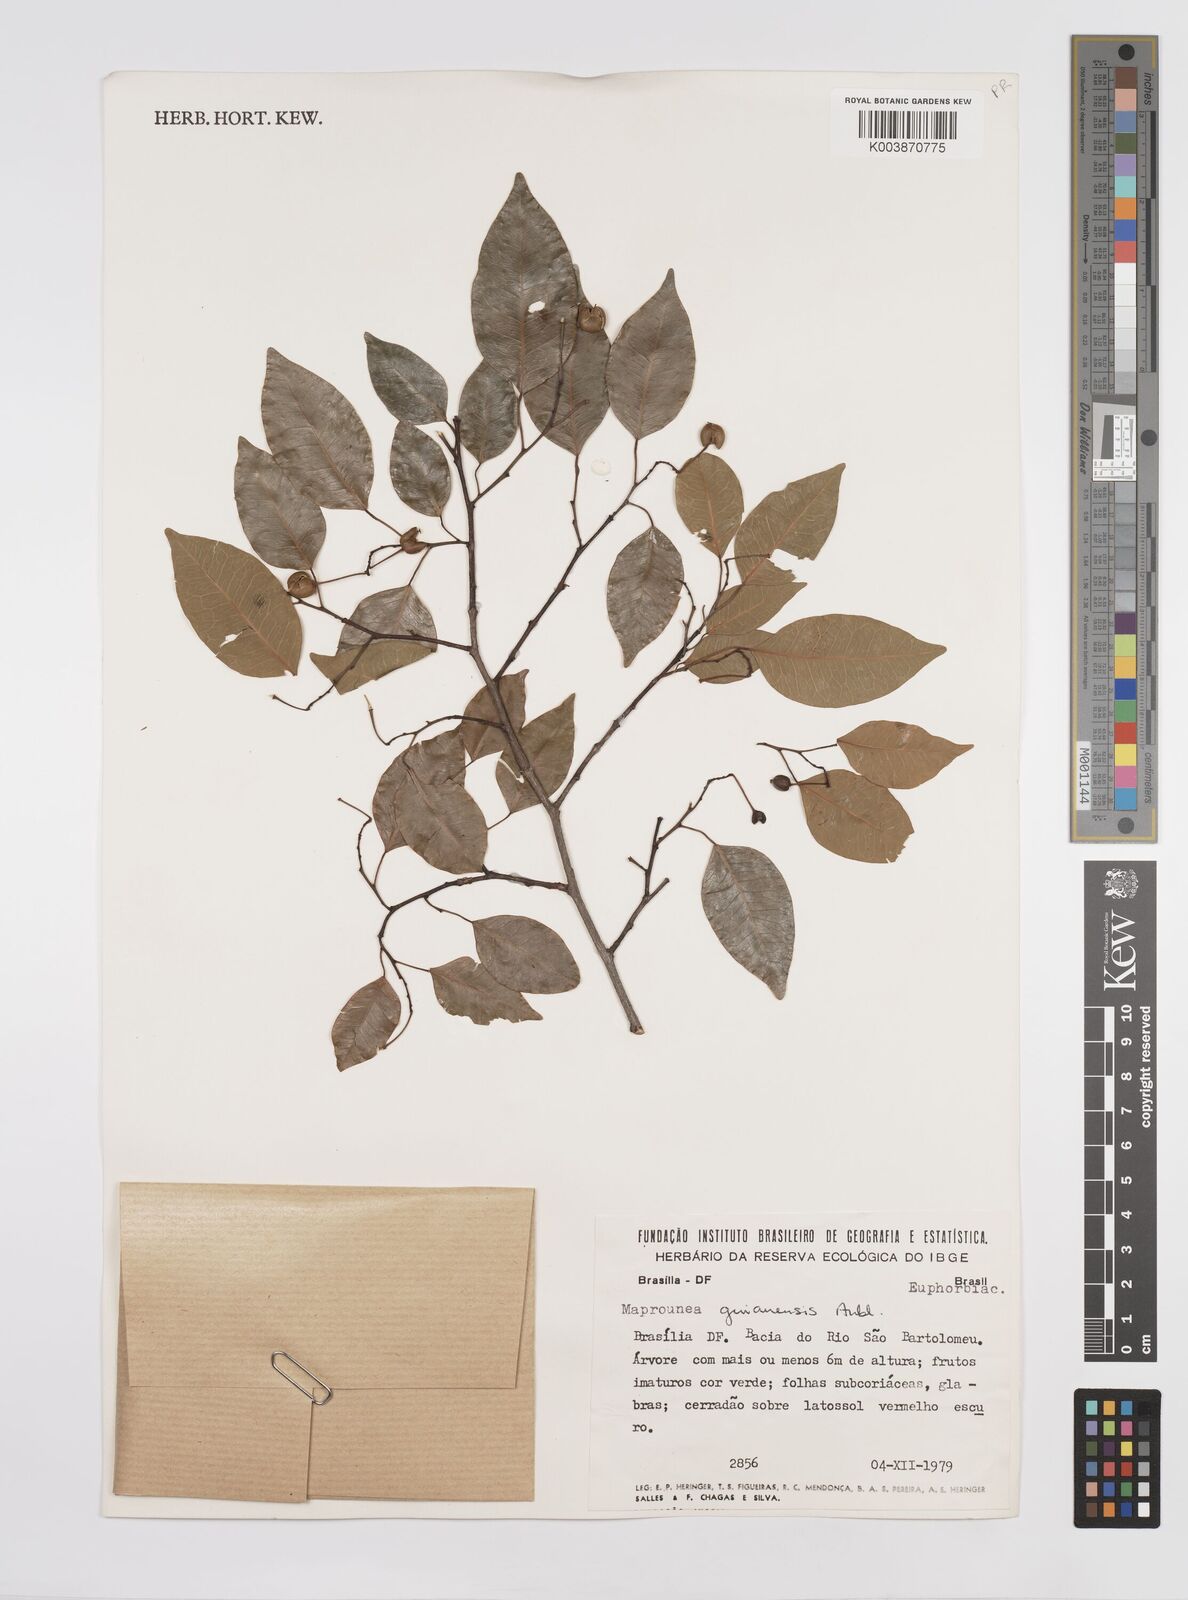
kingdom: Plantae
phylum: Tracheophyta
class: Magnoliopsida
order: Malpighiales
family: Euphorbiaceae
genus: Maprounea
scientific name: Maprounea guianensis
